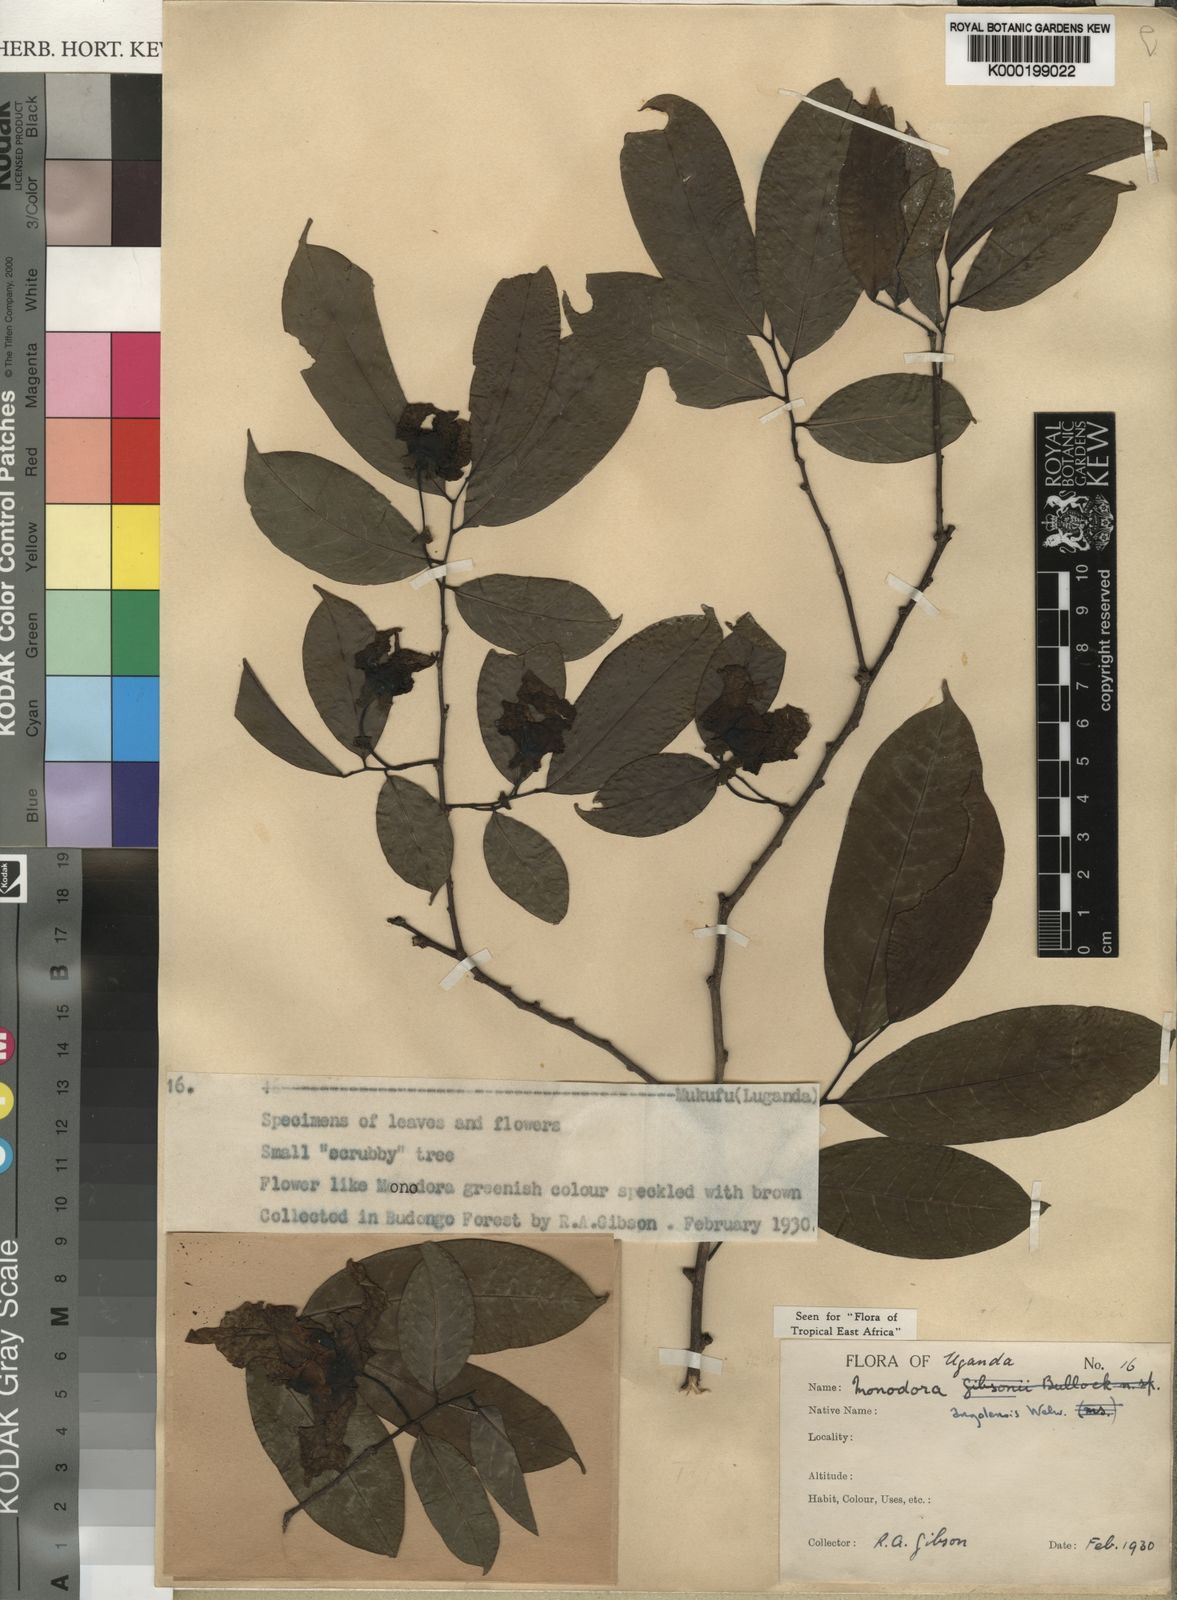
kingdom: Plantae
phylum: Tracheophyta
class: Magnoliopsida
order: Magnoliales
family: Annonaceae
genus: Monodora
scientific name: Monodora angolensis
